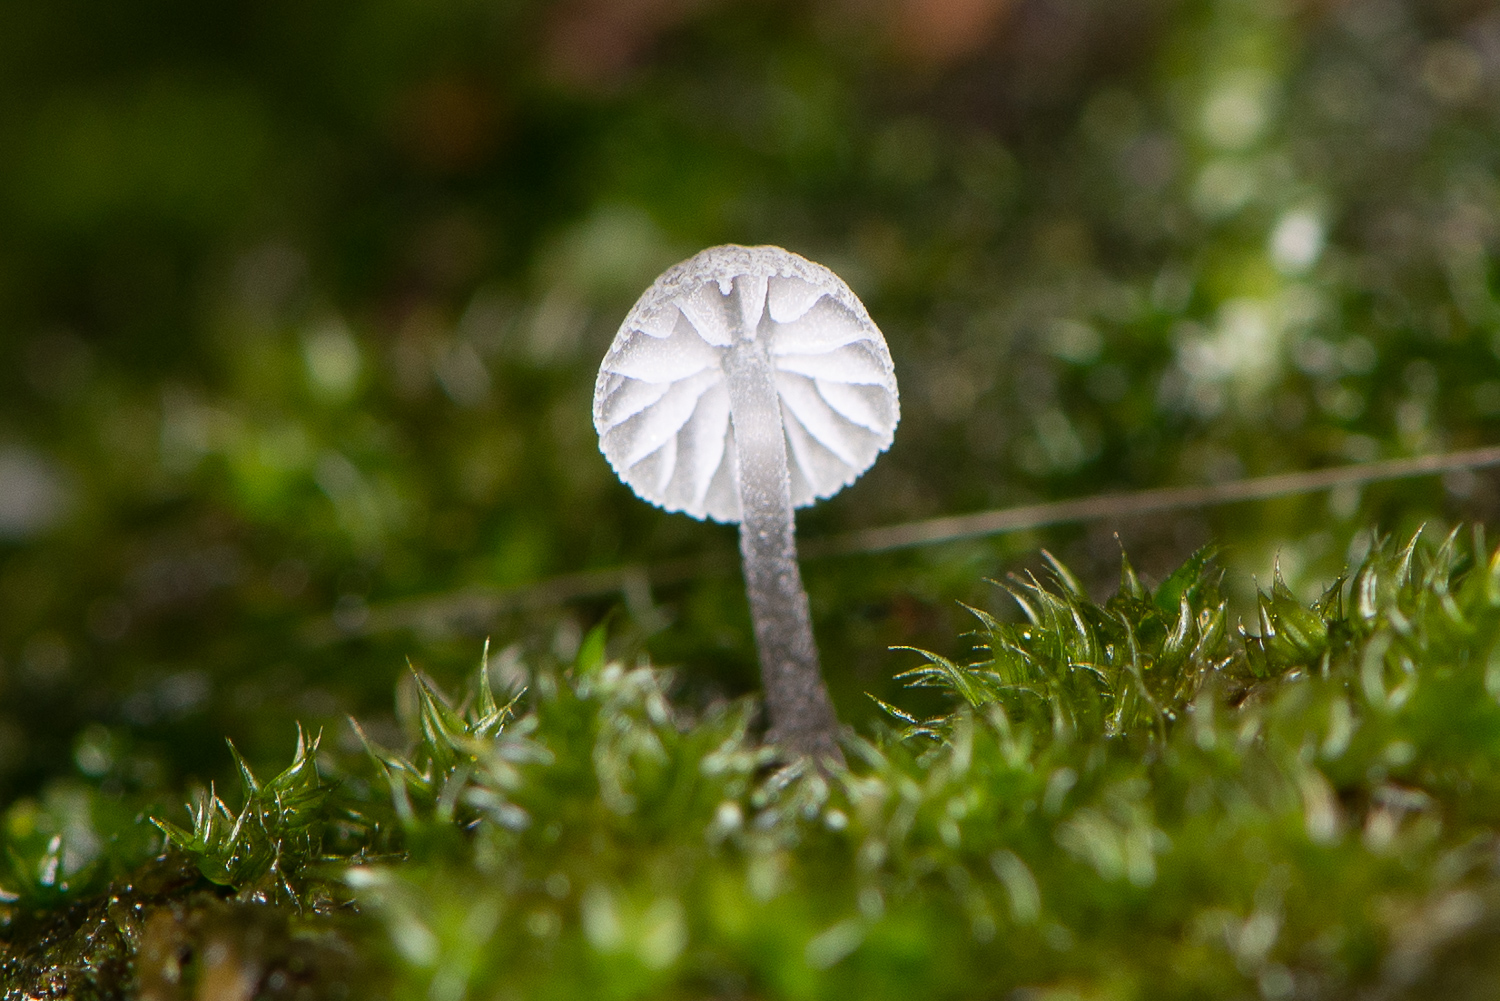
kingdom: Fungi
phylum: Basidiomycota
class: Agaricomycetes
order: Agaricales
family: Mycenaceae
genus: Mycena
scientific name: Mycena pseudocorticola
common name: gråblå bark-huesvamp
